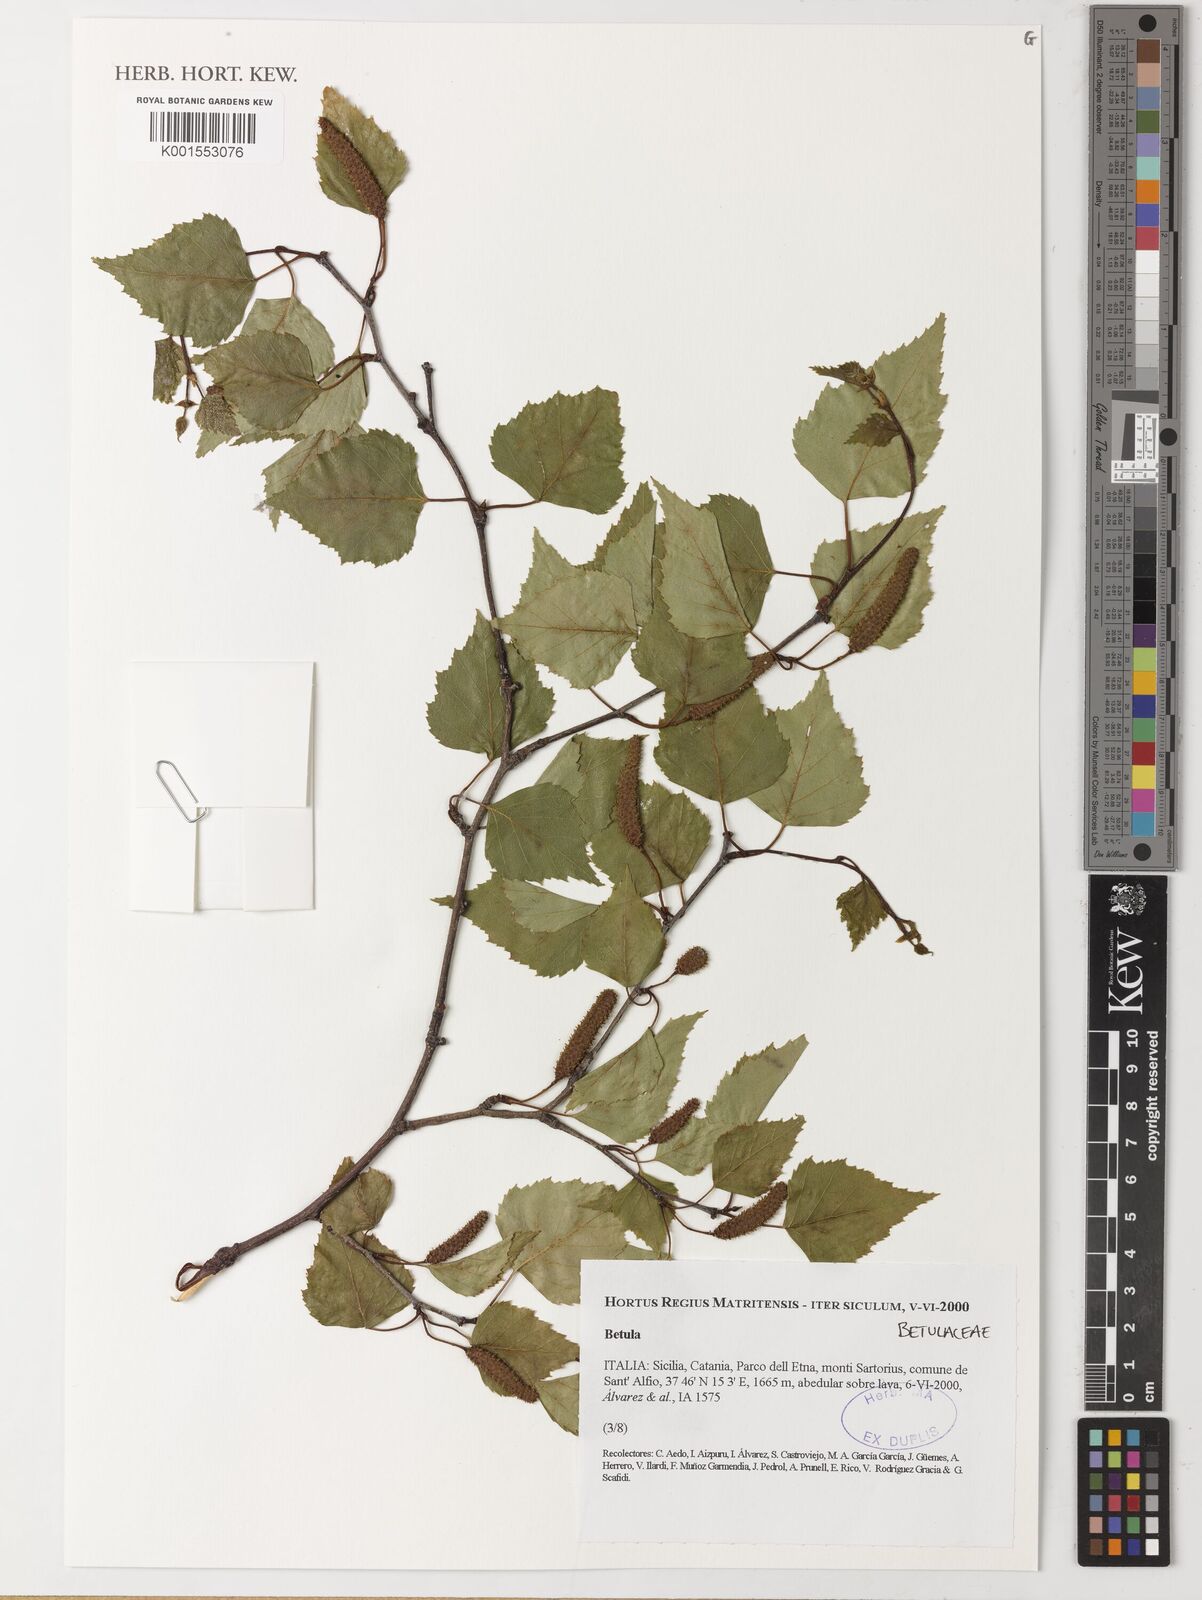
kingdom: Plantae
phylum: Tracheophyta
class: Magnoliopsida
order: Fagales
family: Betulaceae
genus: Betula
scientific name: Betula
